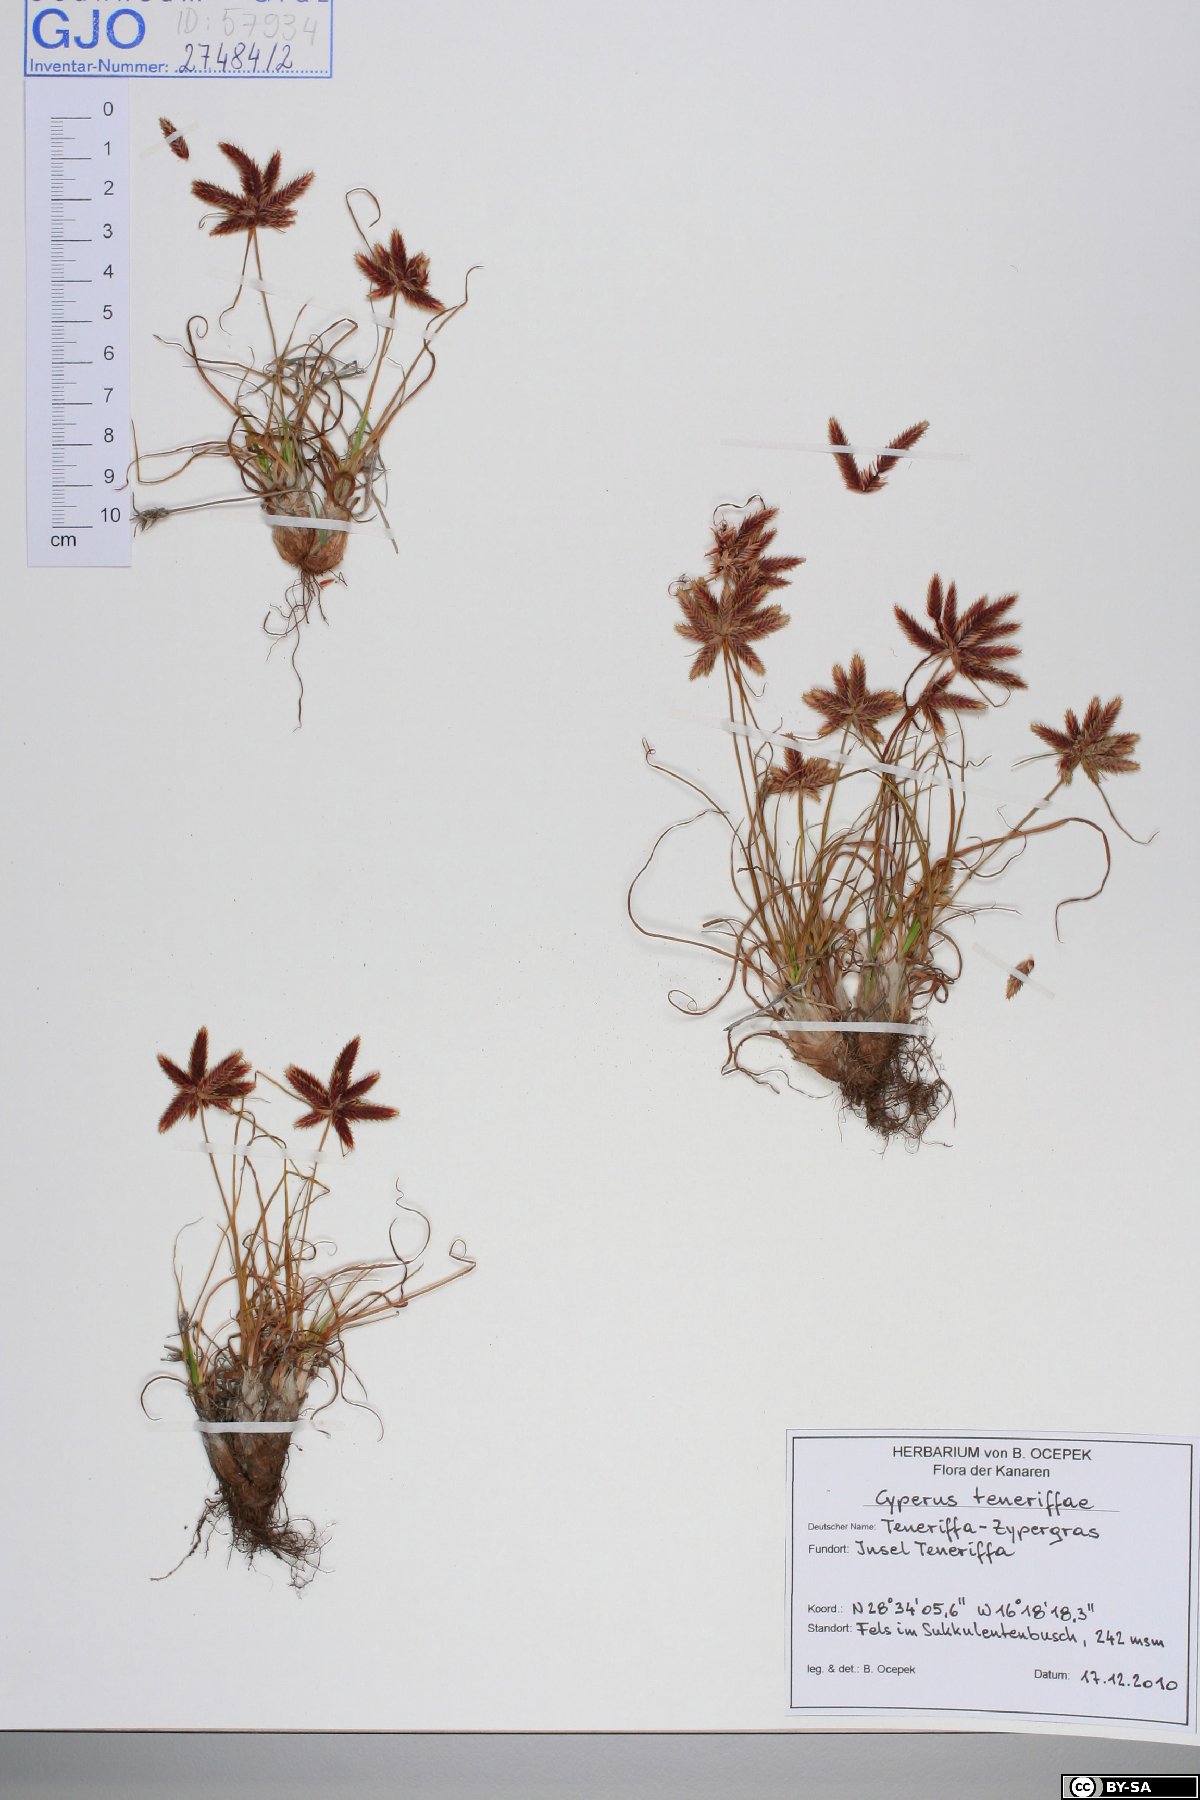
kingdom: Plantae
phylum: Tracheophyta
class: Liliopsida
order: Poales
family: Cyperaceae
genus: Cyperus
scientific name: Cyperus rubicundus
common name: Coco-grass
